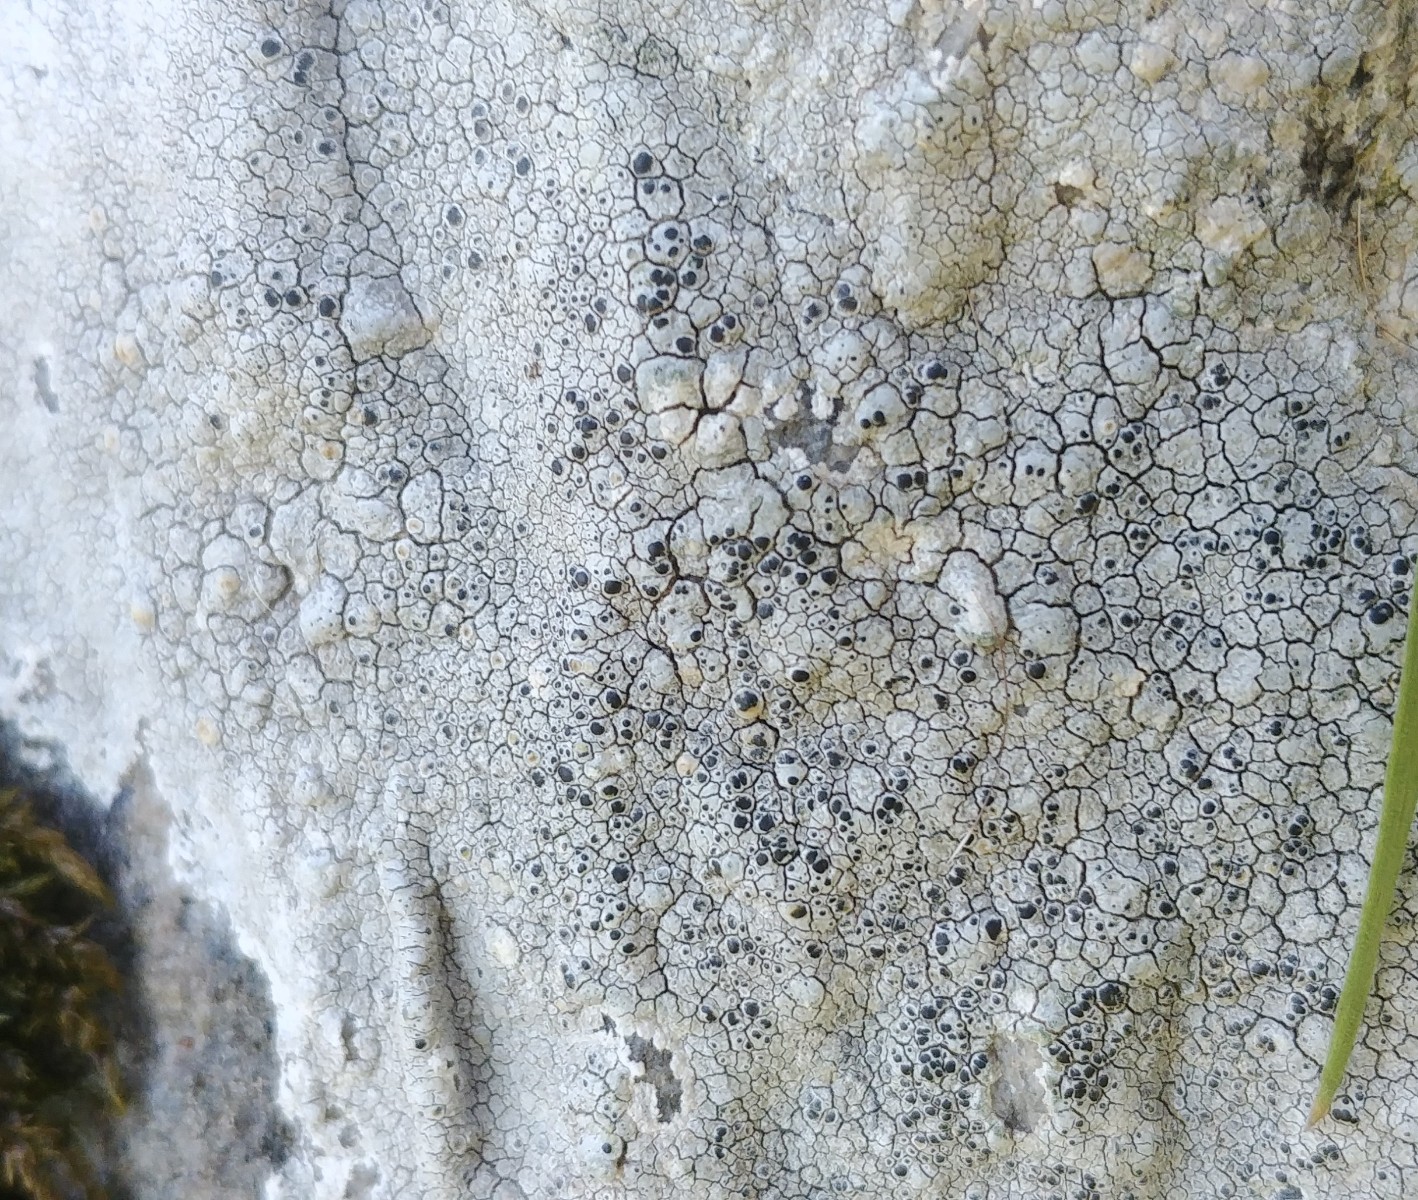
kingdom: Fungi
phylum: Ascomycota
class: Lecanoromycetes
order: Lecanorales
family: Lecanoraceae
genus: Glaucomaria
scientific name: Glaucomaria rupicola
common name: stengærde-kantskivelav
